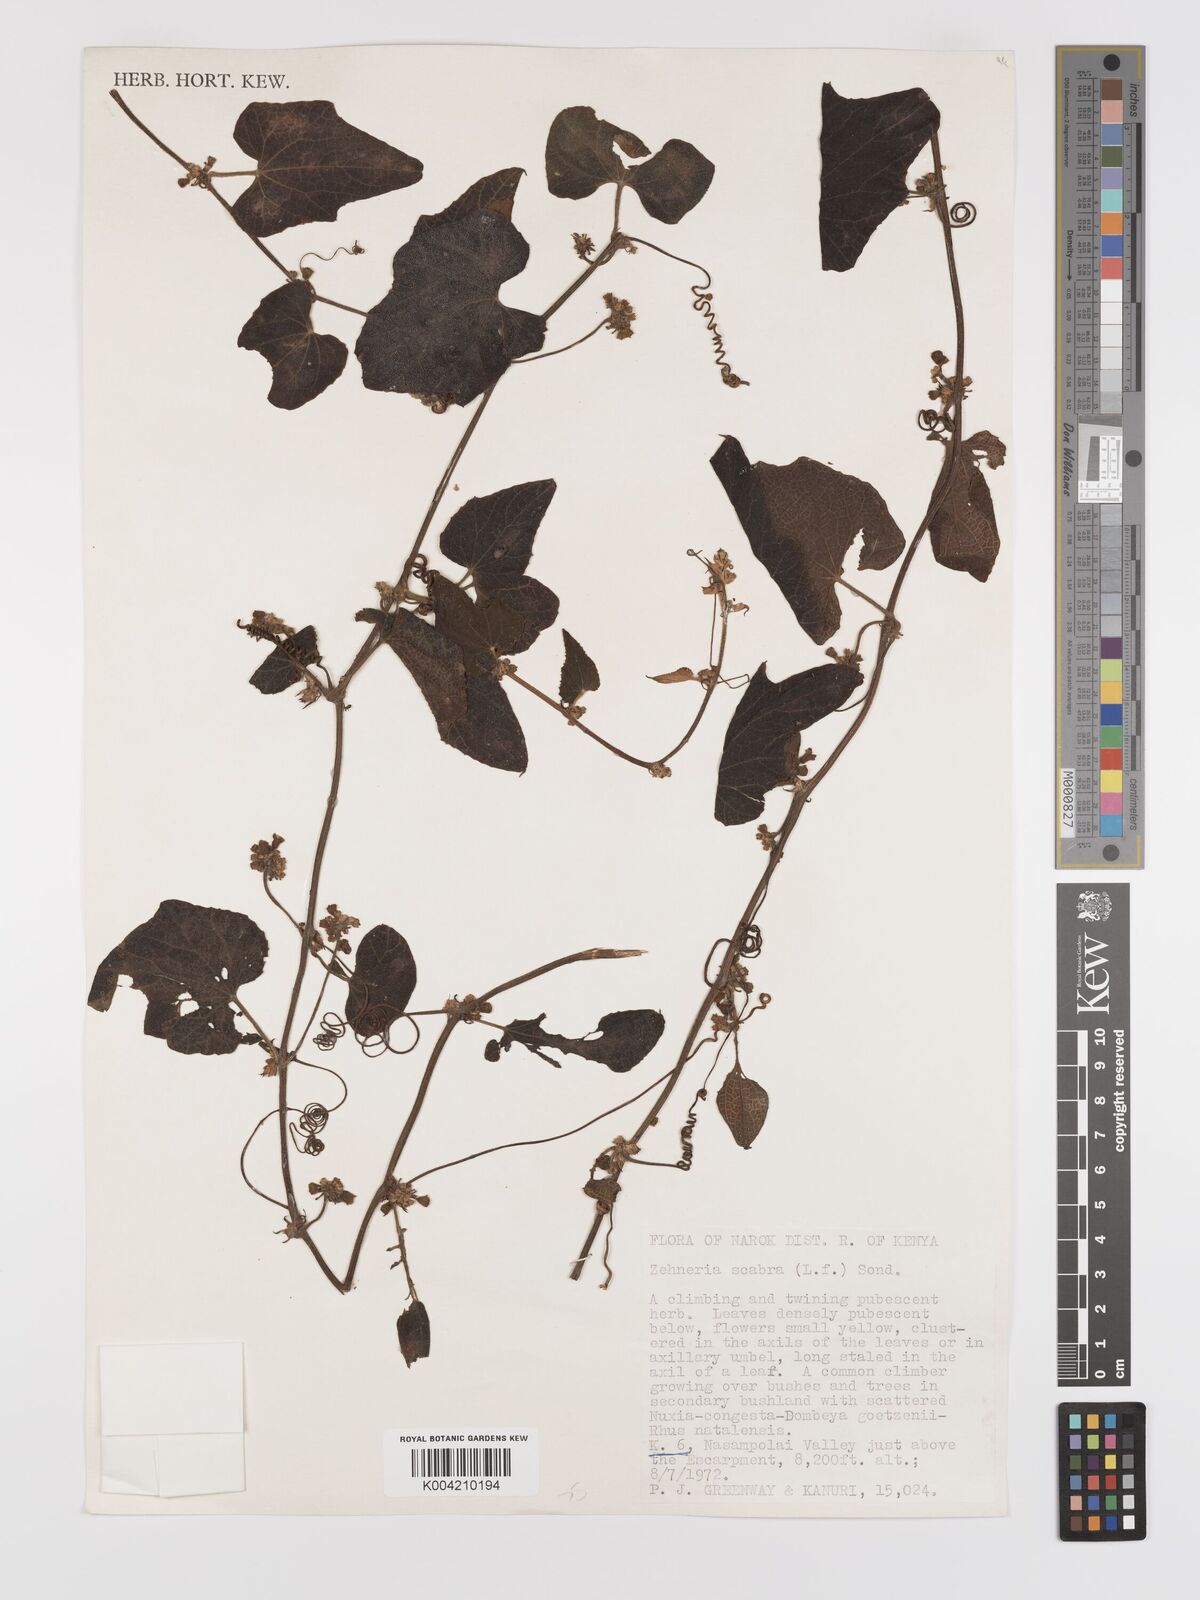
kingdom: Plantae
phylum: Tracheophyta
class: Magnoliopsida
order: Cucurbitales
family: Cucurbitaceae
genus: Zehneria
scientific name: Zehneria scabra
